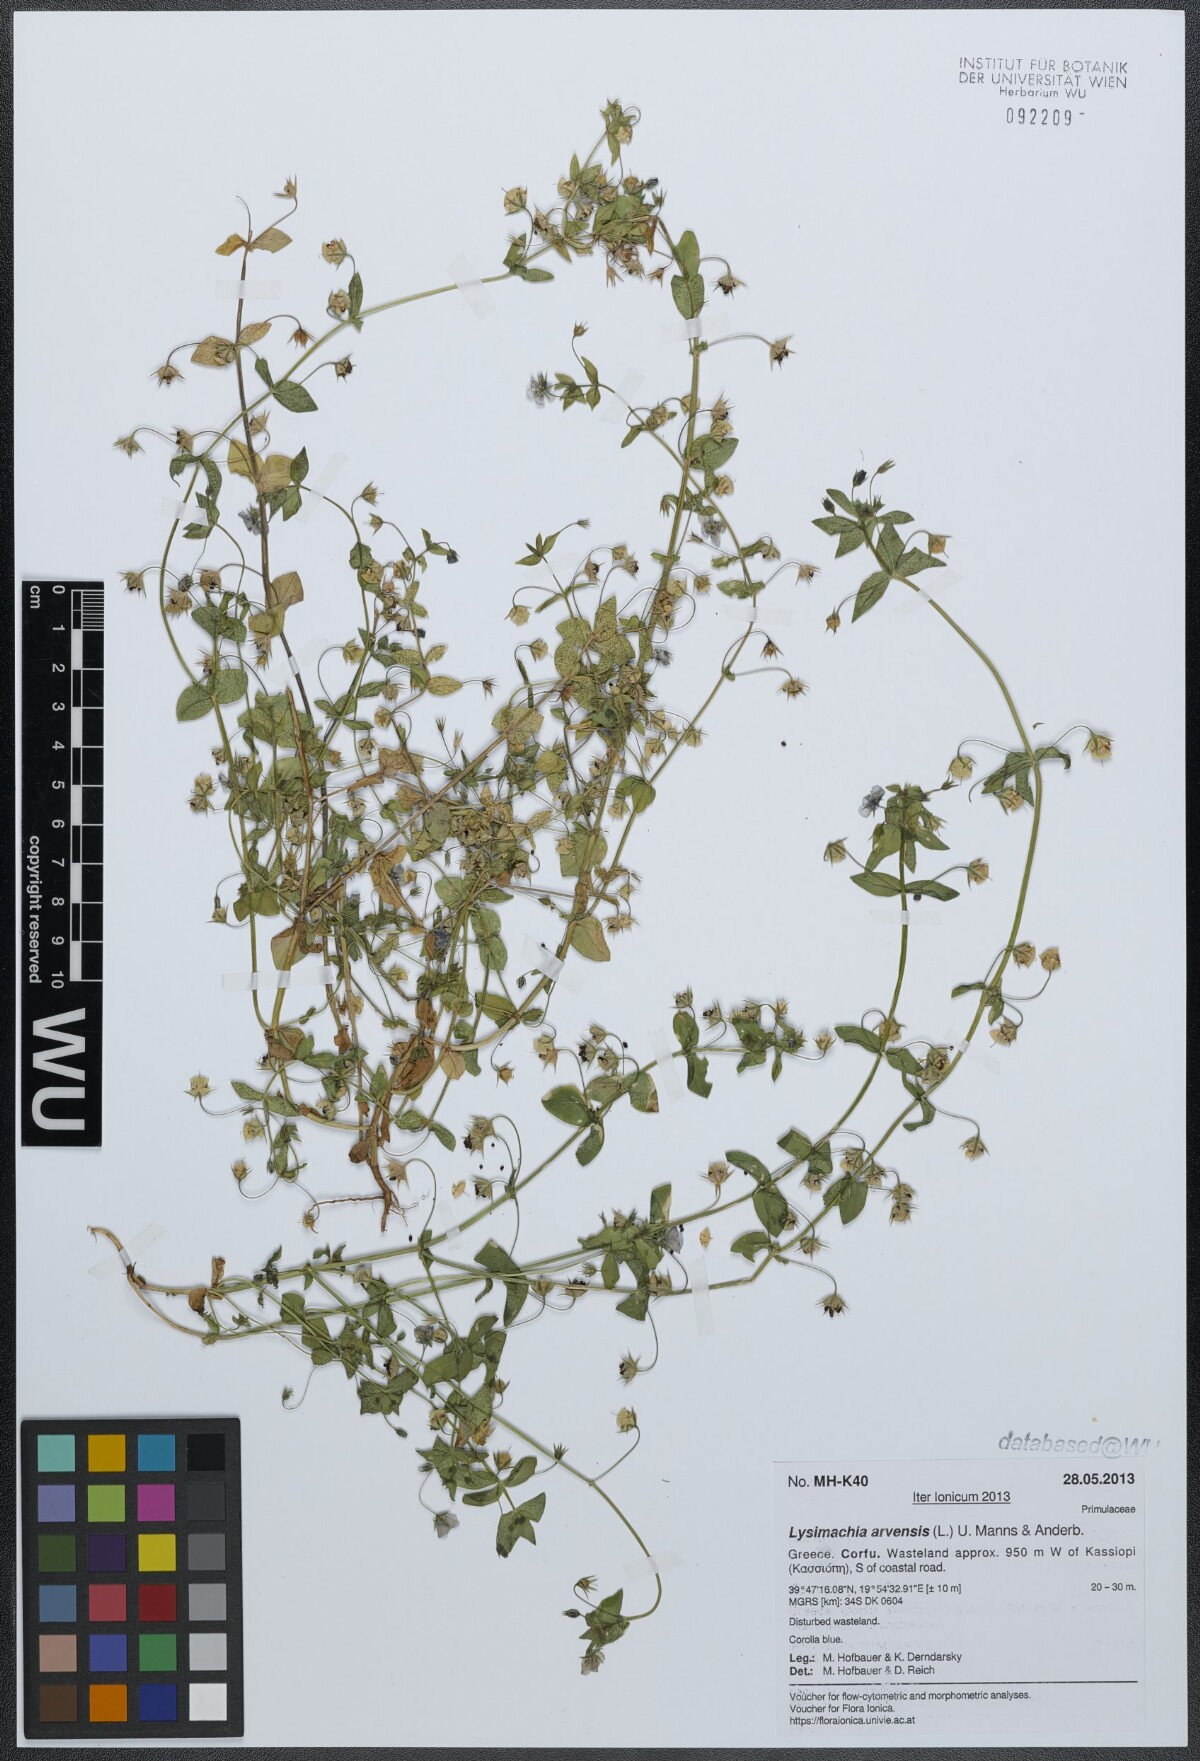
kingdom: Plantae
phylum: Tracheophyta
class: Magnoliopsida
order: Ericales
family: Primulaceae
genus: Lysimachia
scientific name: Lysimachia arvensis
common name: Scarlet pimpernel
